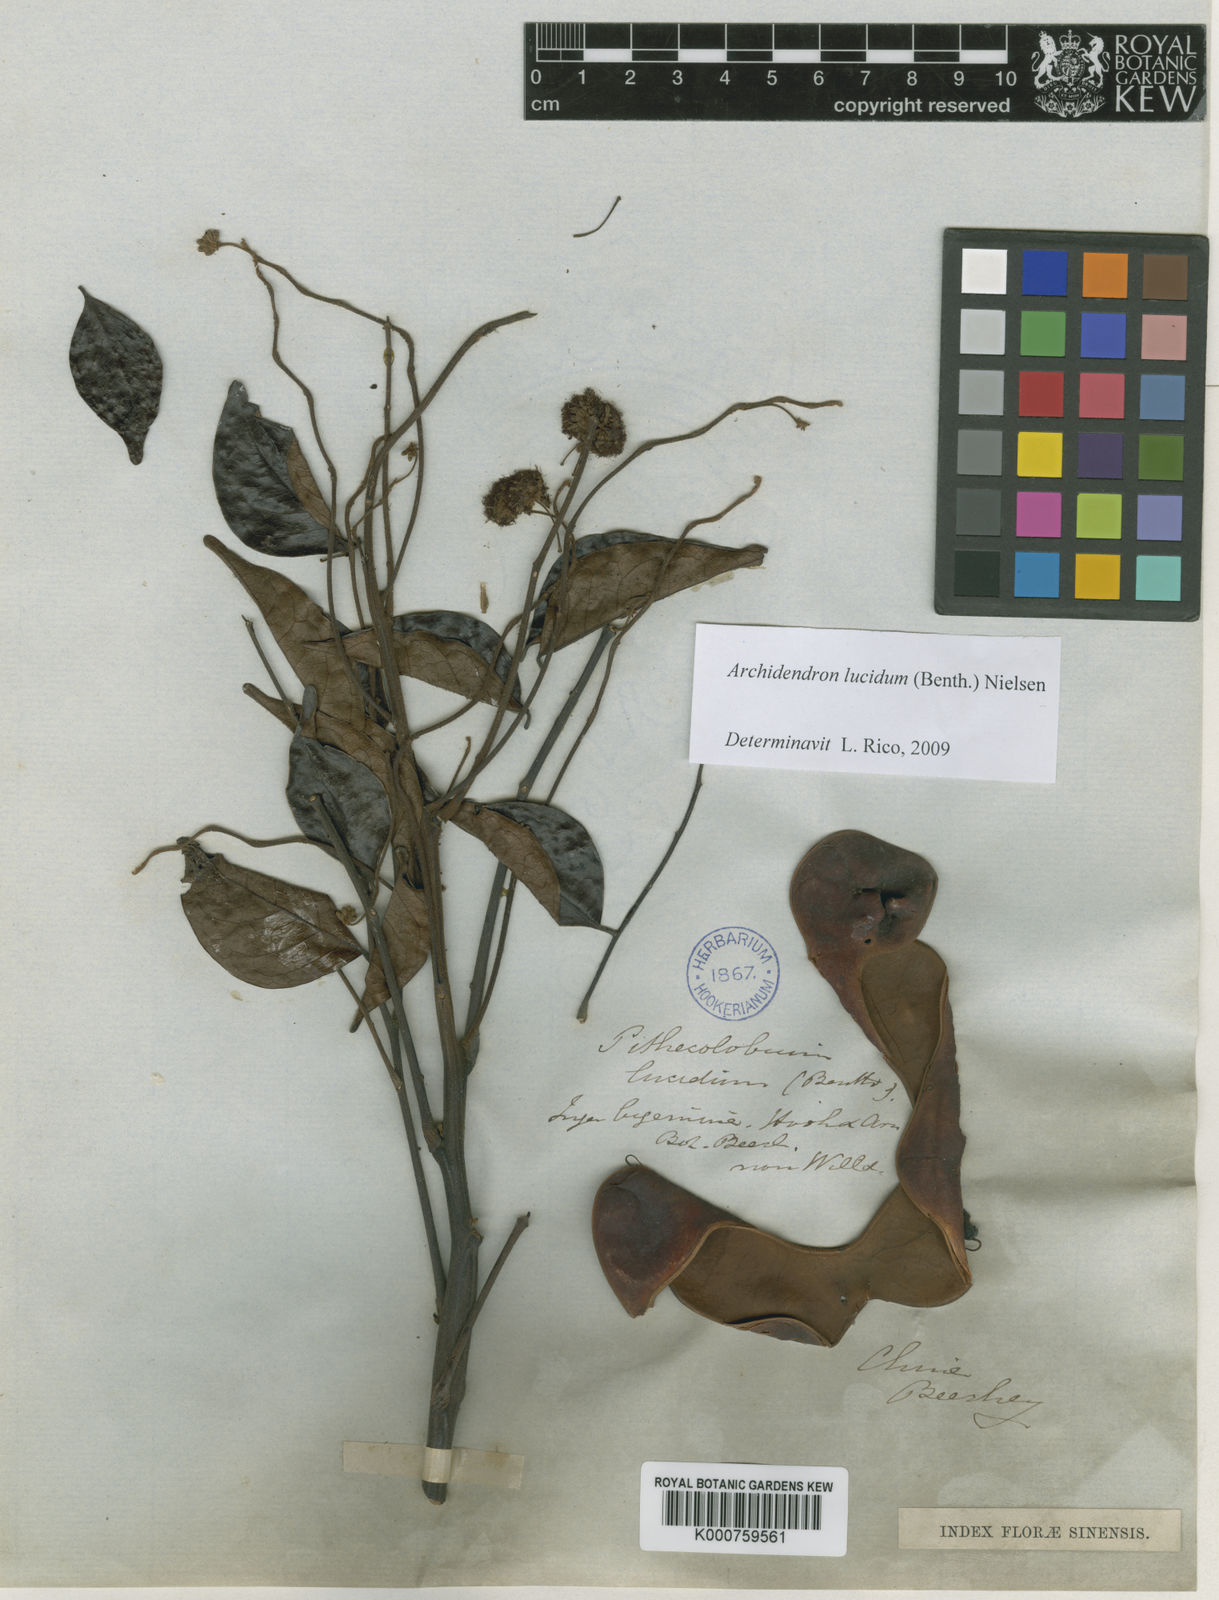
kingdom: Plantae
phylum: Tracheophyta
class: Magnoliopsida
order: Fabales
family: Fabaceae
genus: Archidendron
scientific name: Archidendron lucidum
